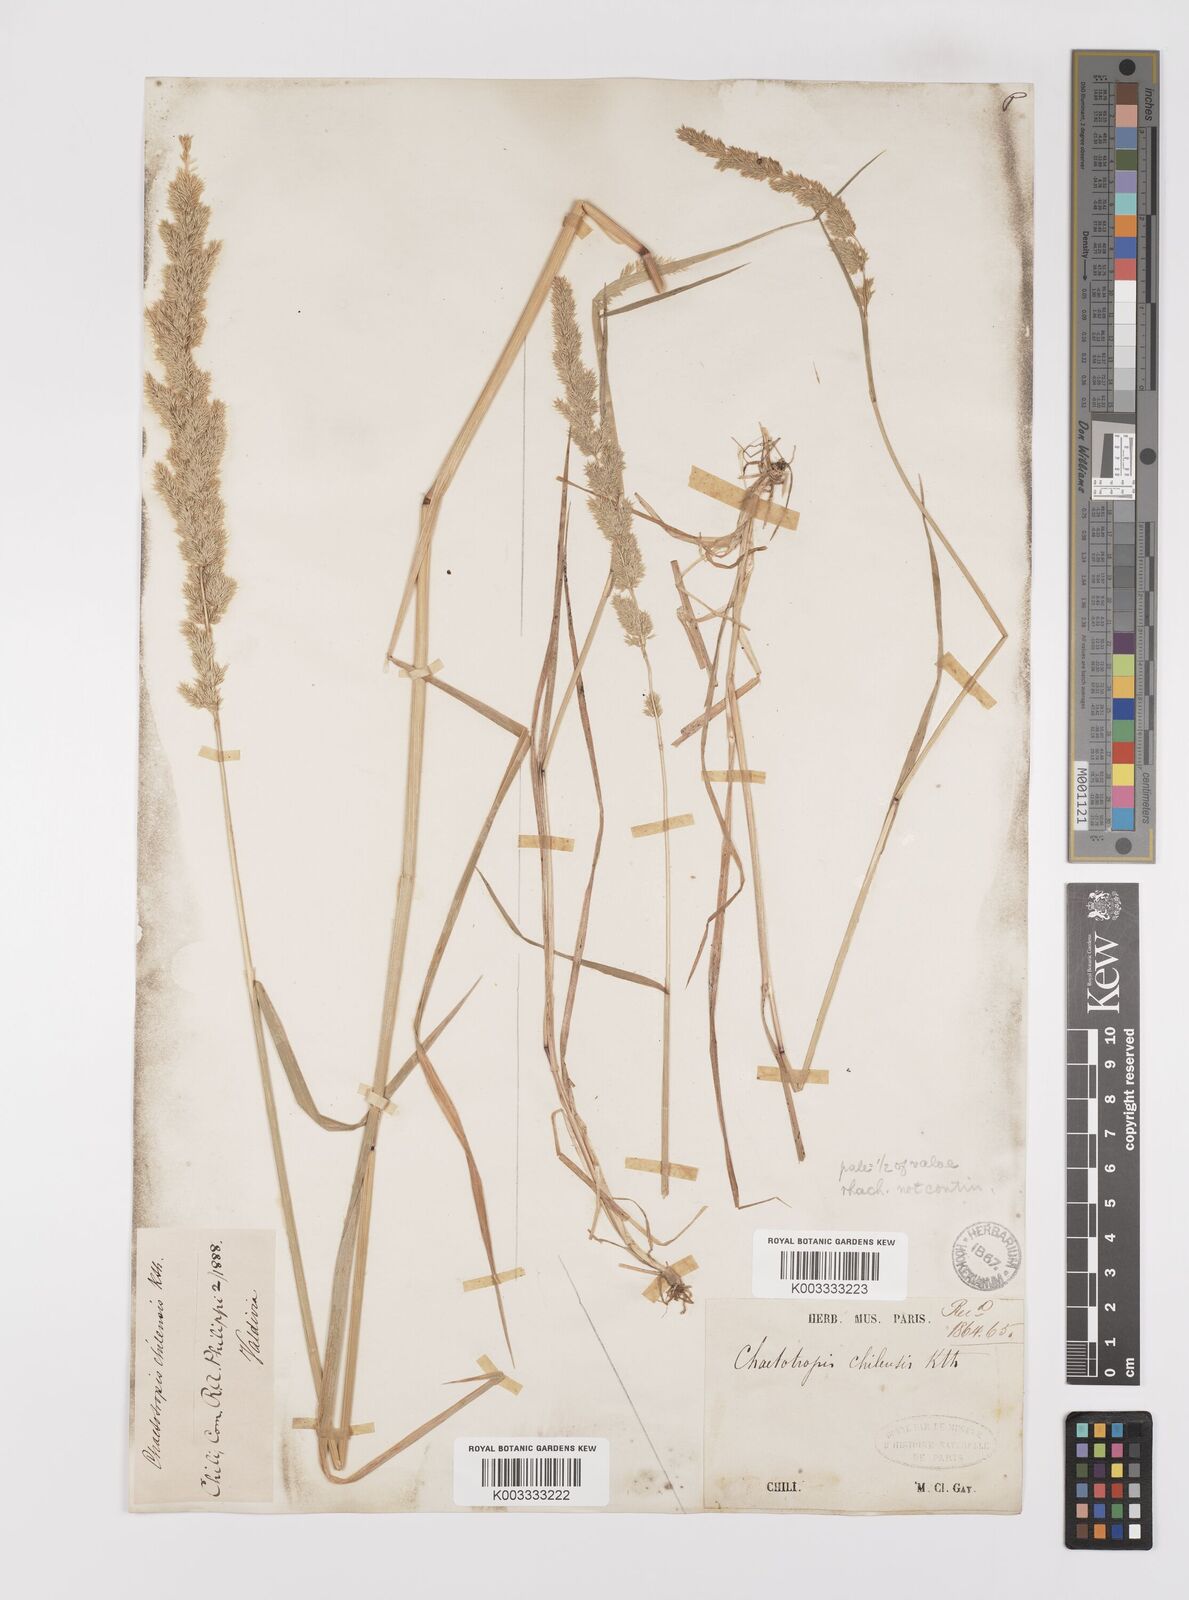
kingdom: Plantae
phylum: Tracheophyta
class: Liliopsida
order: Poales
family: Poaceae
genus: Polypogon
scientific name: Polypogon chilensis
